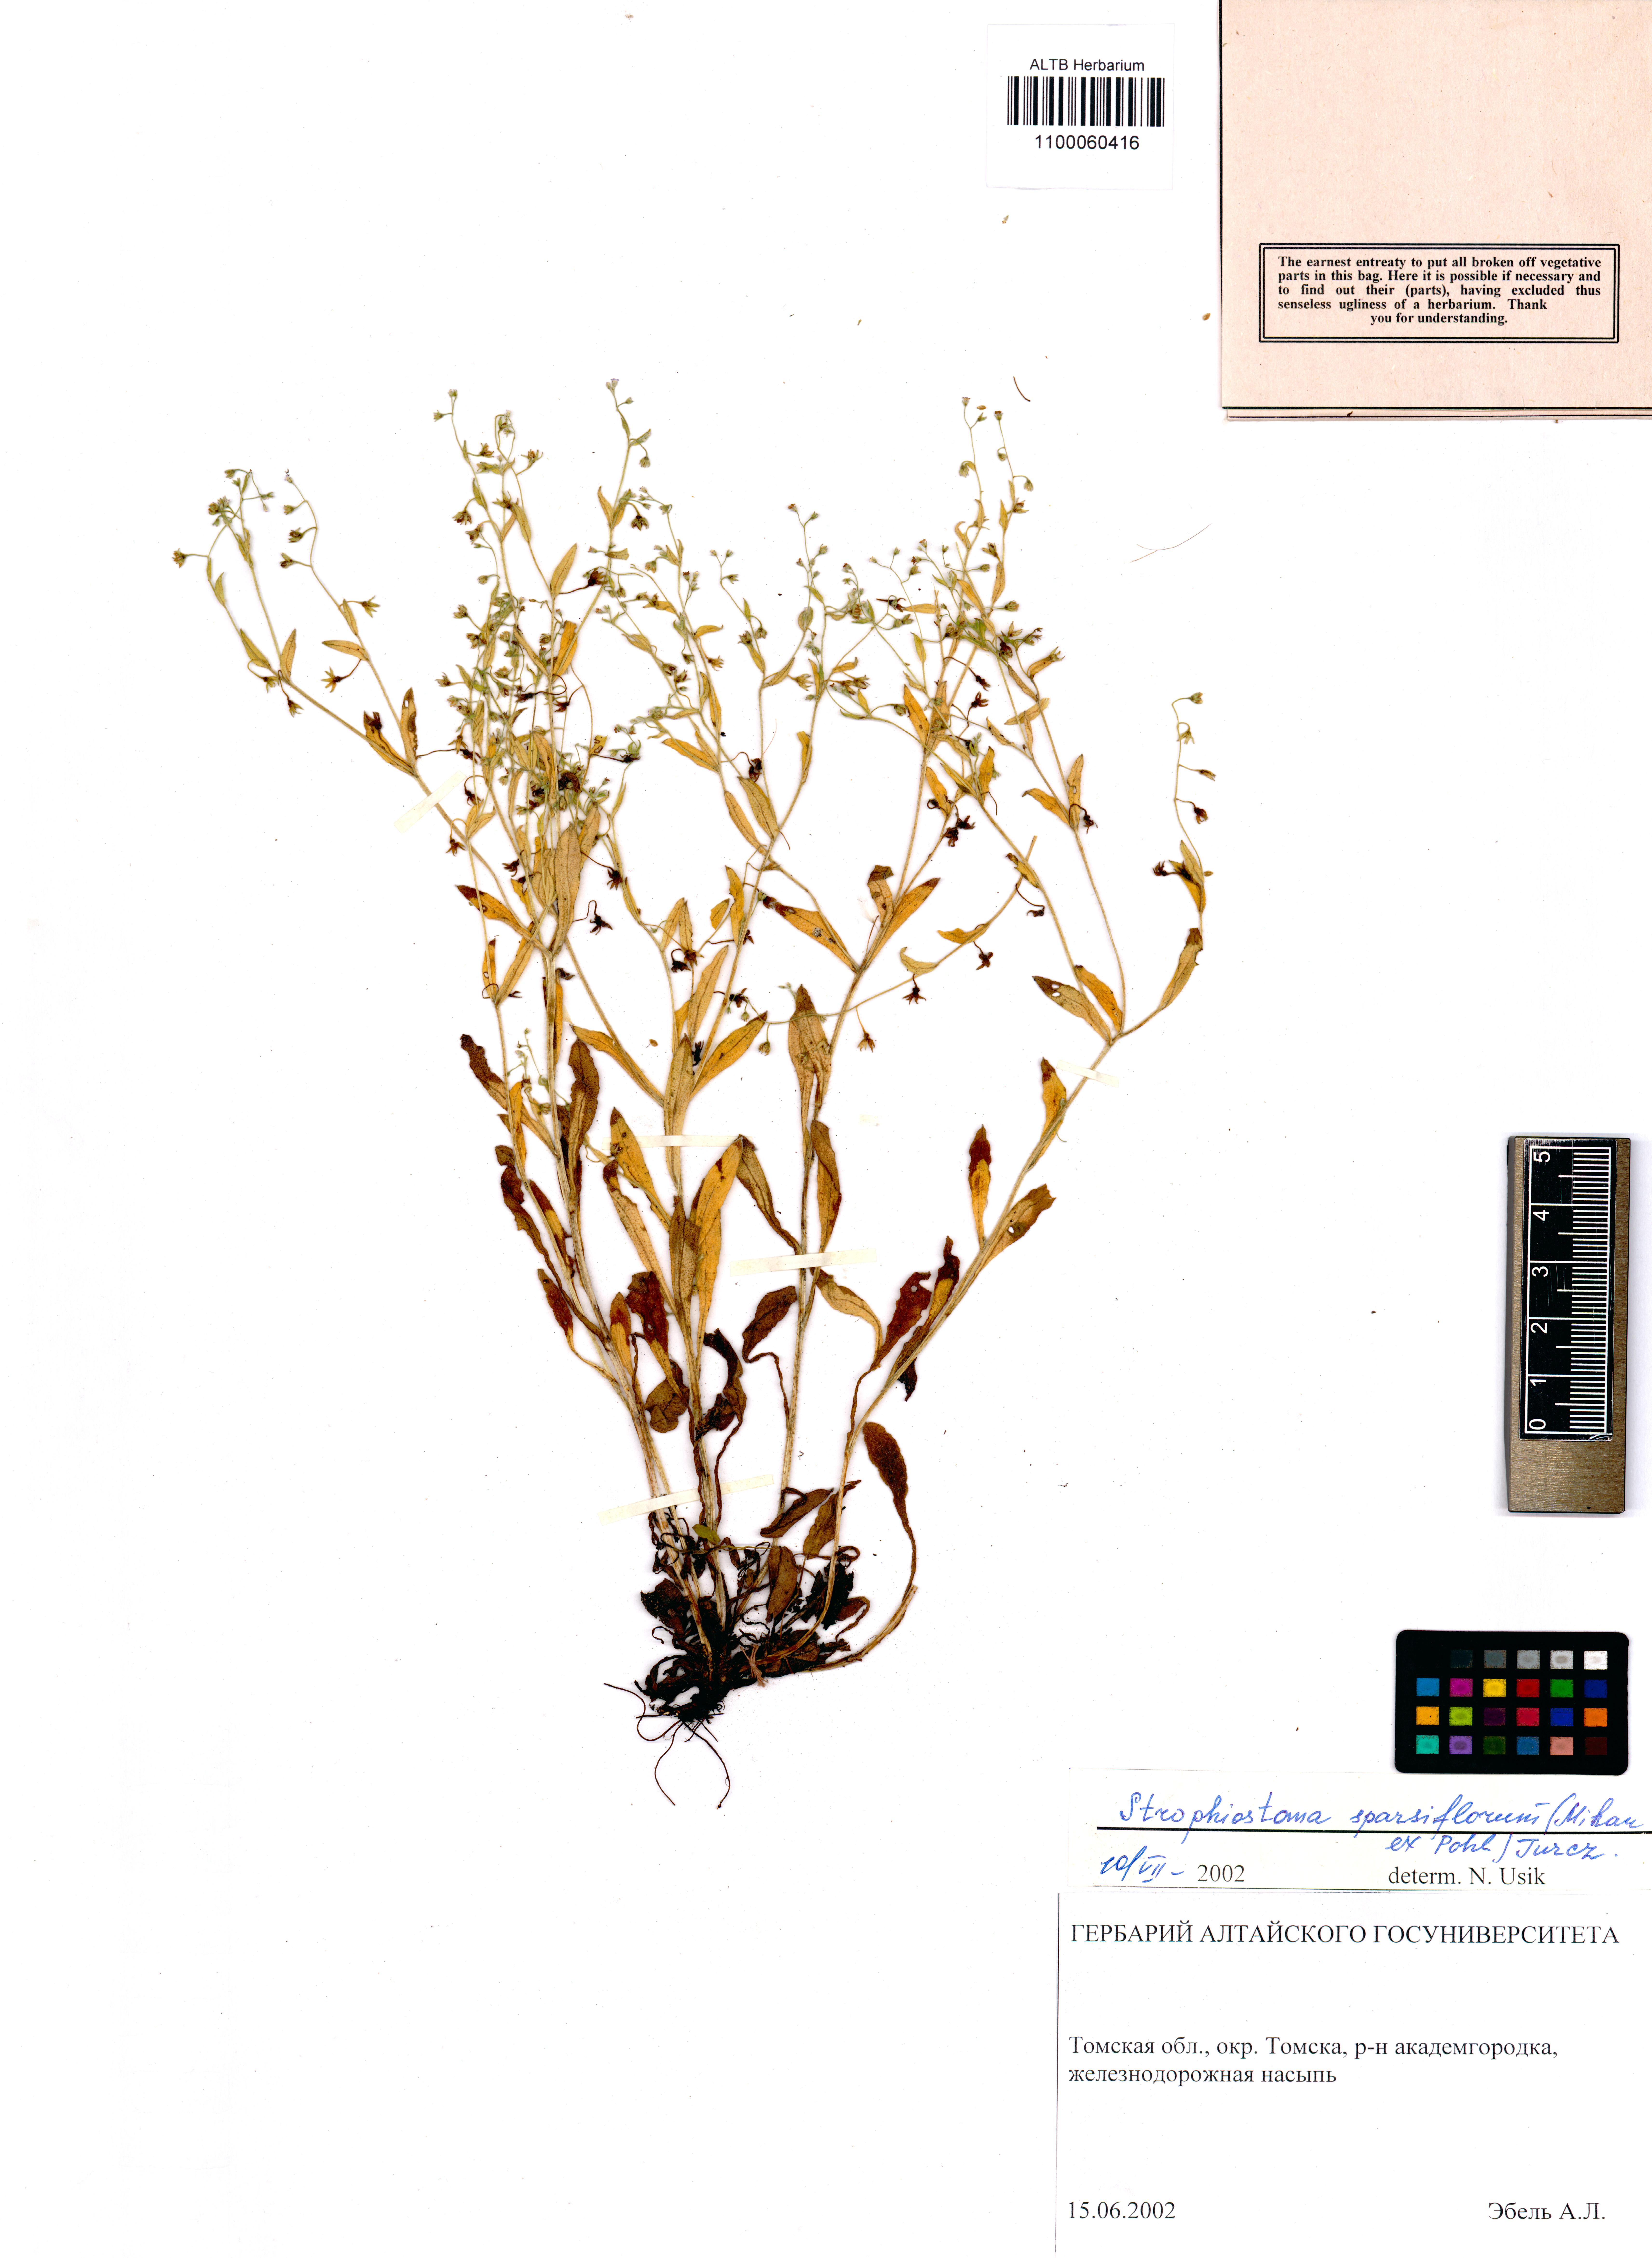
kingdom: Plantae
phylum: Tracheophyta
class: Magnoliopsida
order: Boraginales
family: Boraginaceae
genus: Myosotis
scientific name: Myosotis sparsiflora
